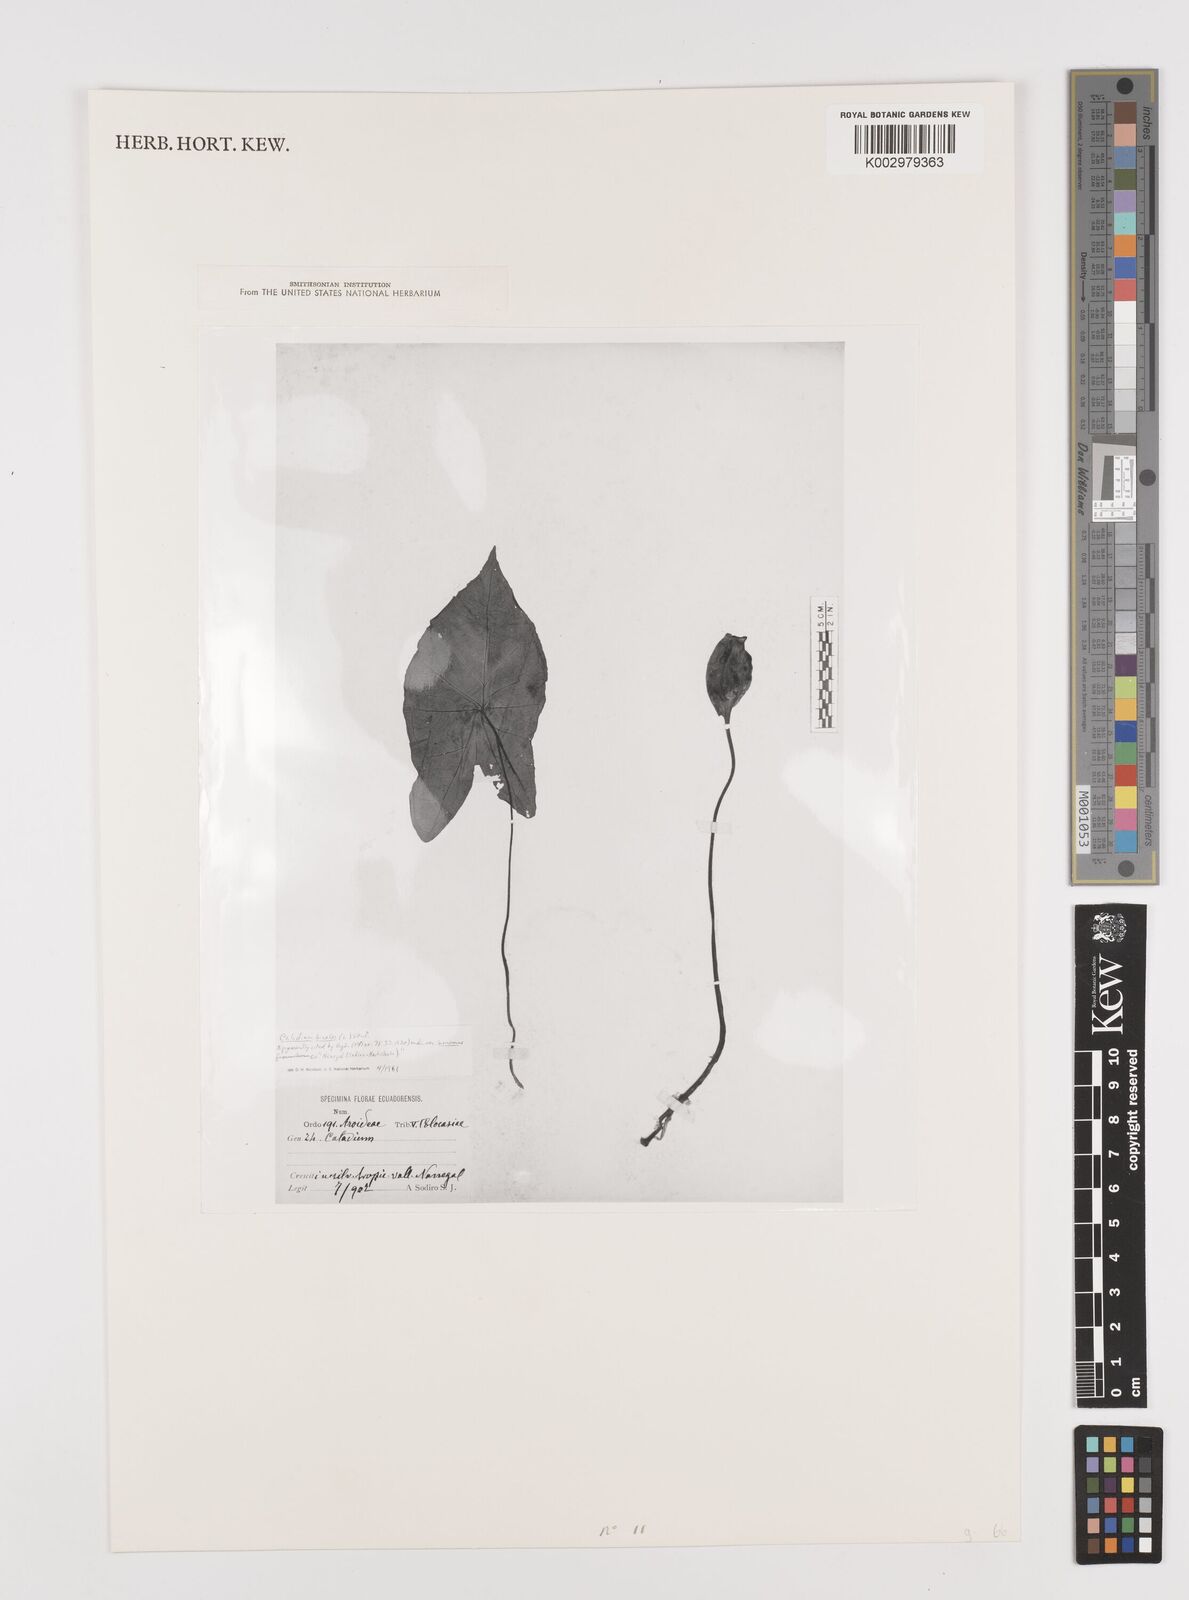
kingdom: Plantae
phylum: Tracheophyta
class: Liliopsida
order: Alismatales
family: Araceae
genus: Caladium
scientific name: Caladium bicolor
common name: Artist's pallet
